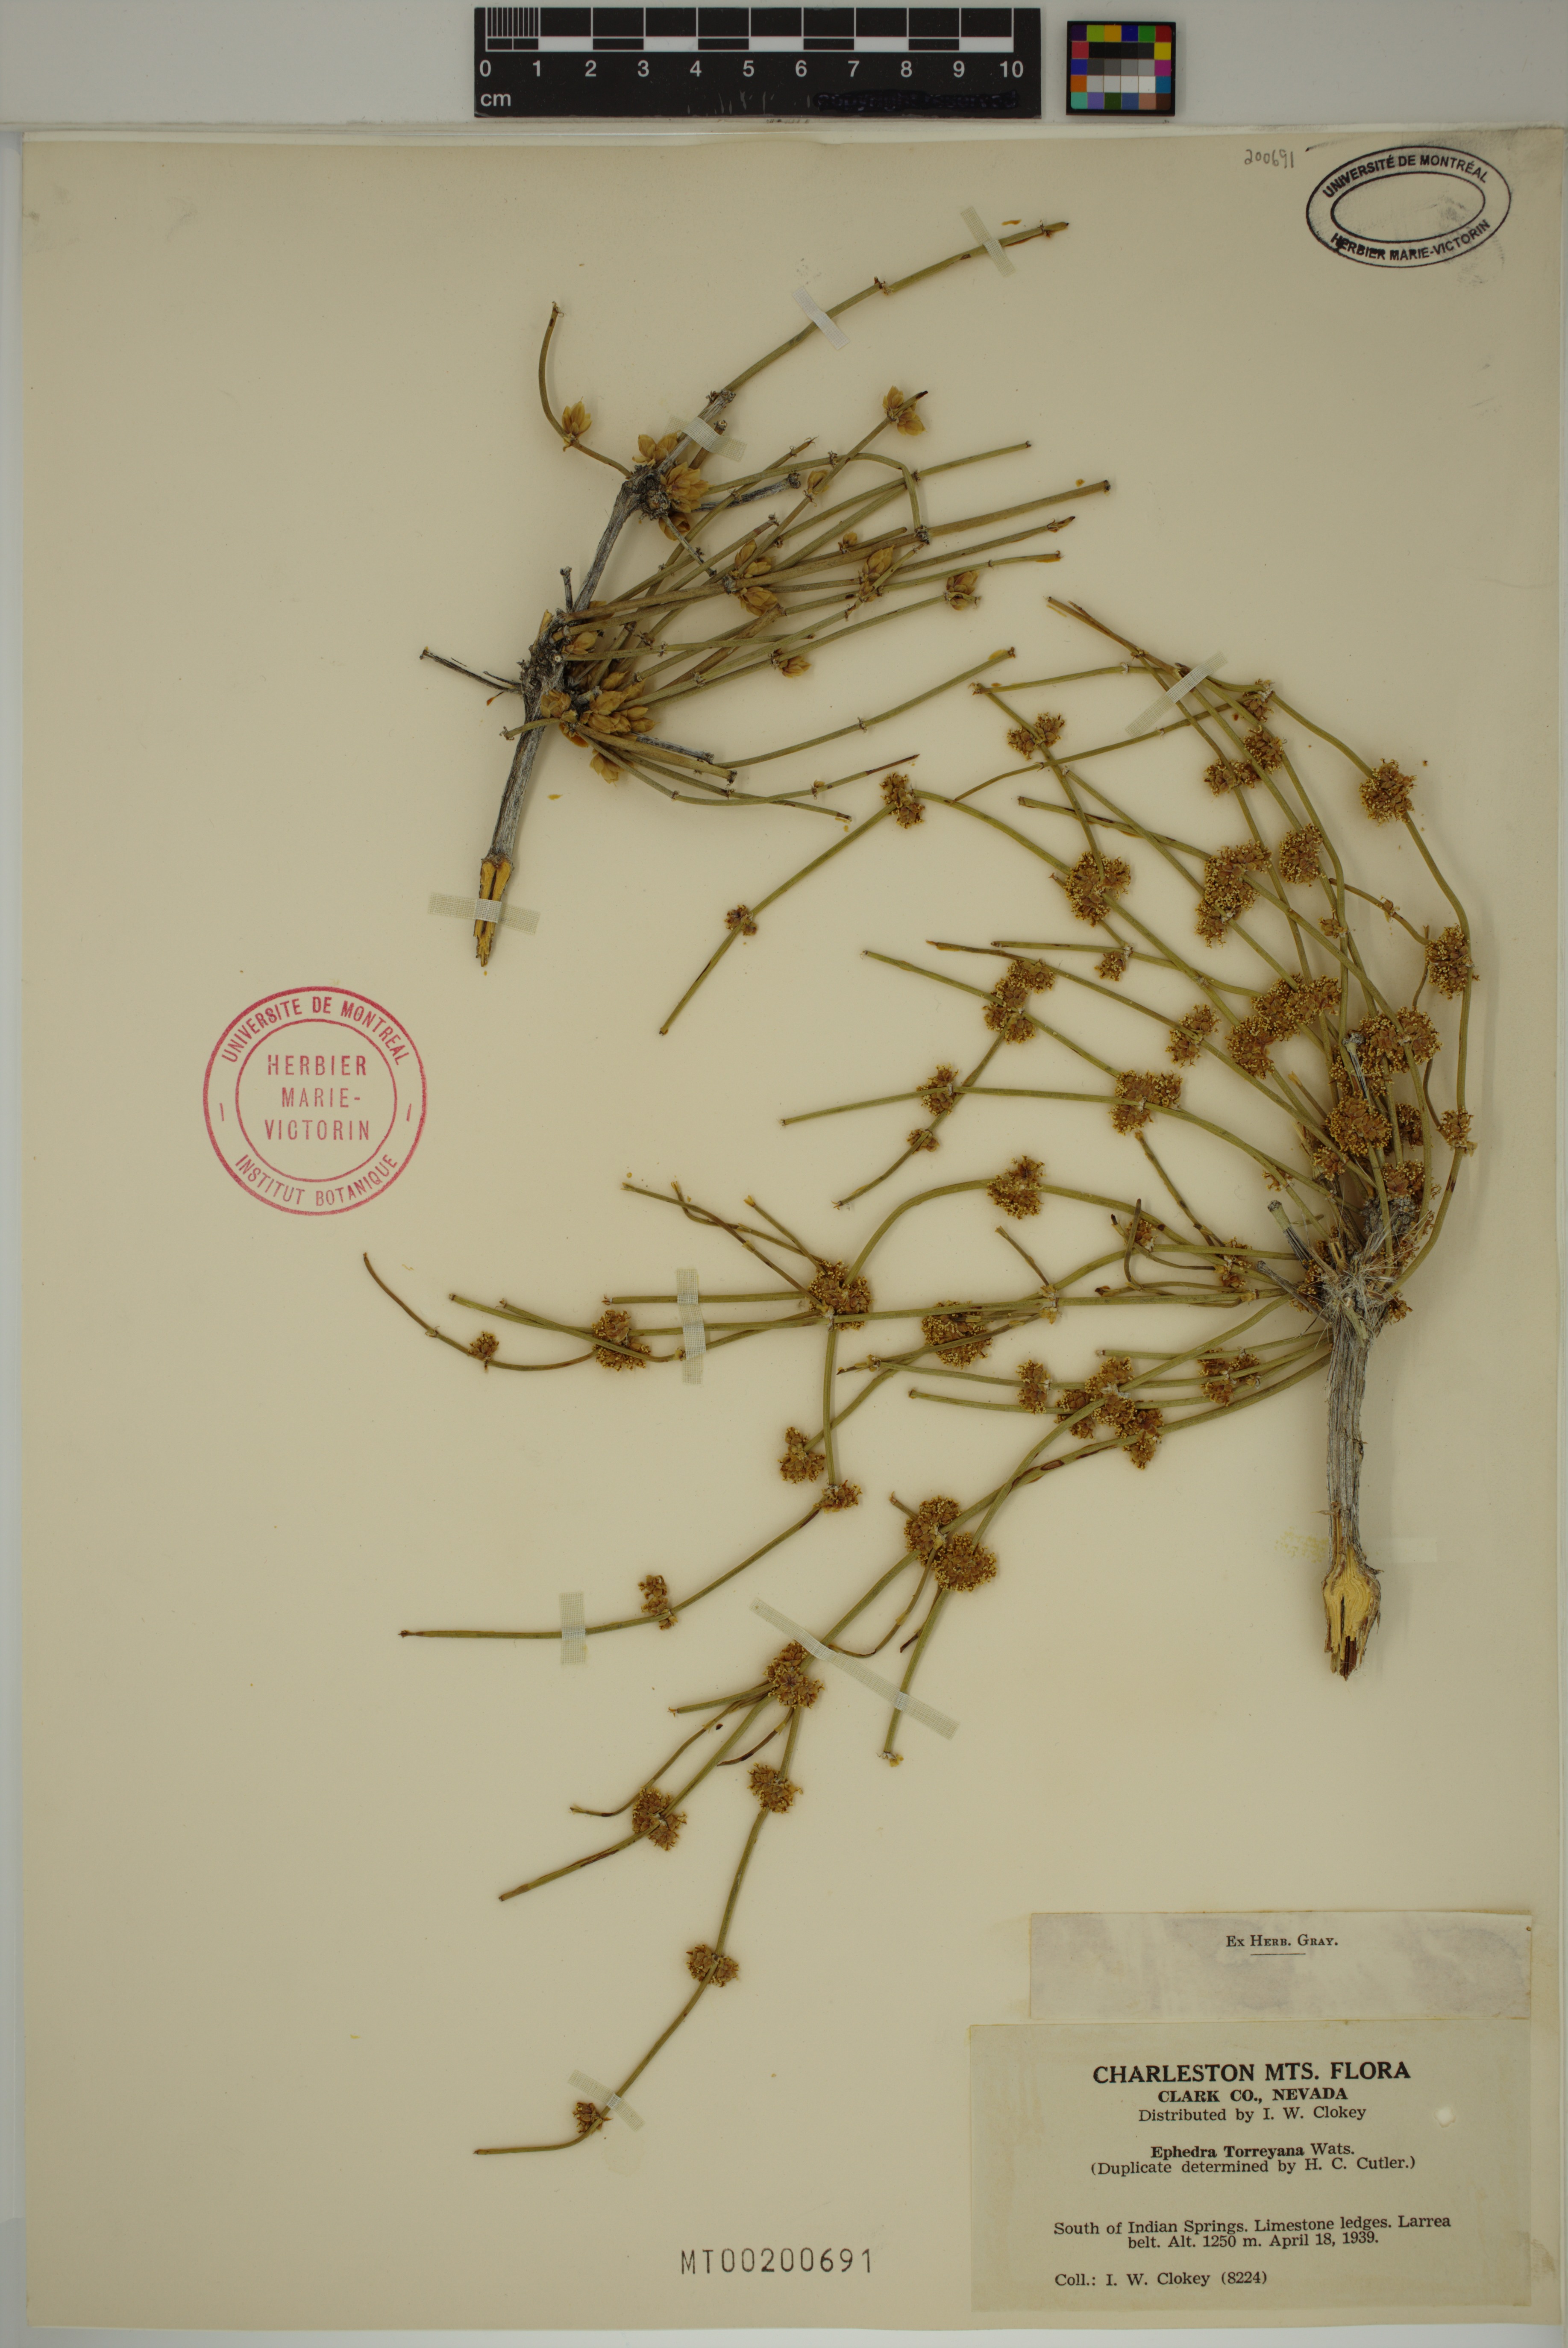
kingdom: Plantae
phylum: Tracheophyta
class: Gnetopsida
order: Ephedrales
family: Ephedraceae
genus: Ephedra
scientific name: Ephedra torreyana
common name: Torrey ephedra
